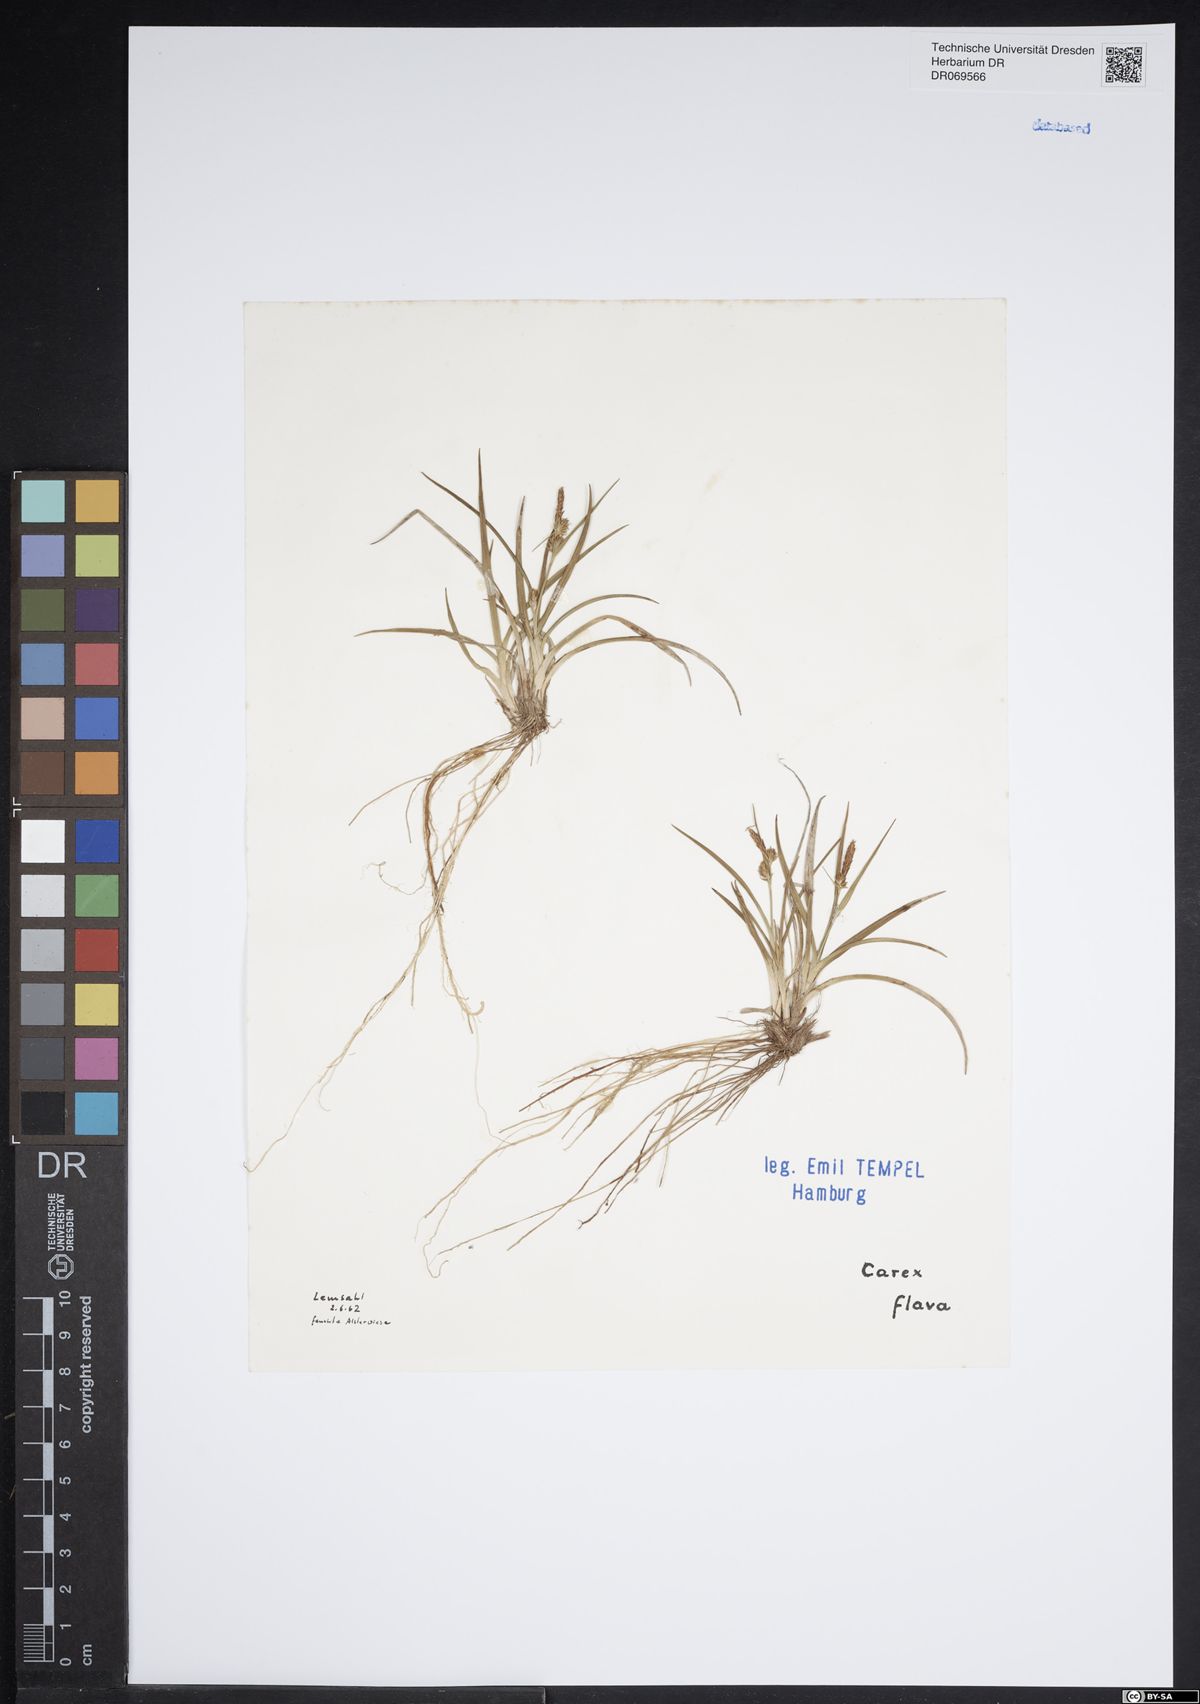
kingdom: Plantae
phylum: Tracheophyta
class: Liliopsida
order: Poales
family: Cyperaceae
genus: Carex
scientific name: Carex flava
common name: Large yellow-sedge
